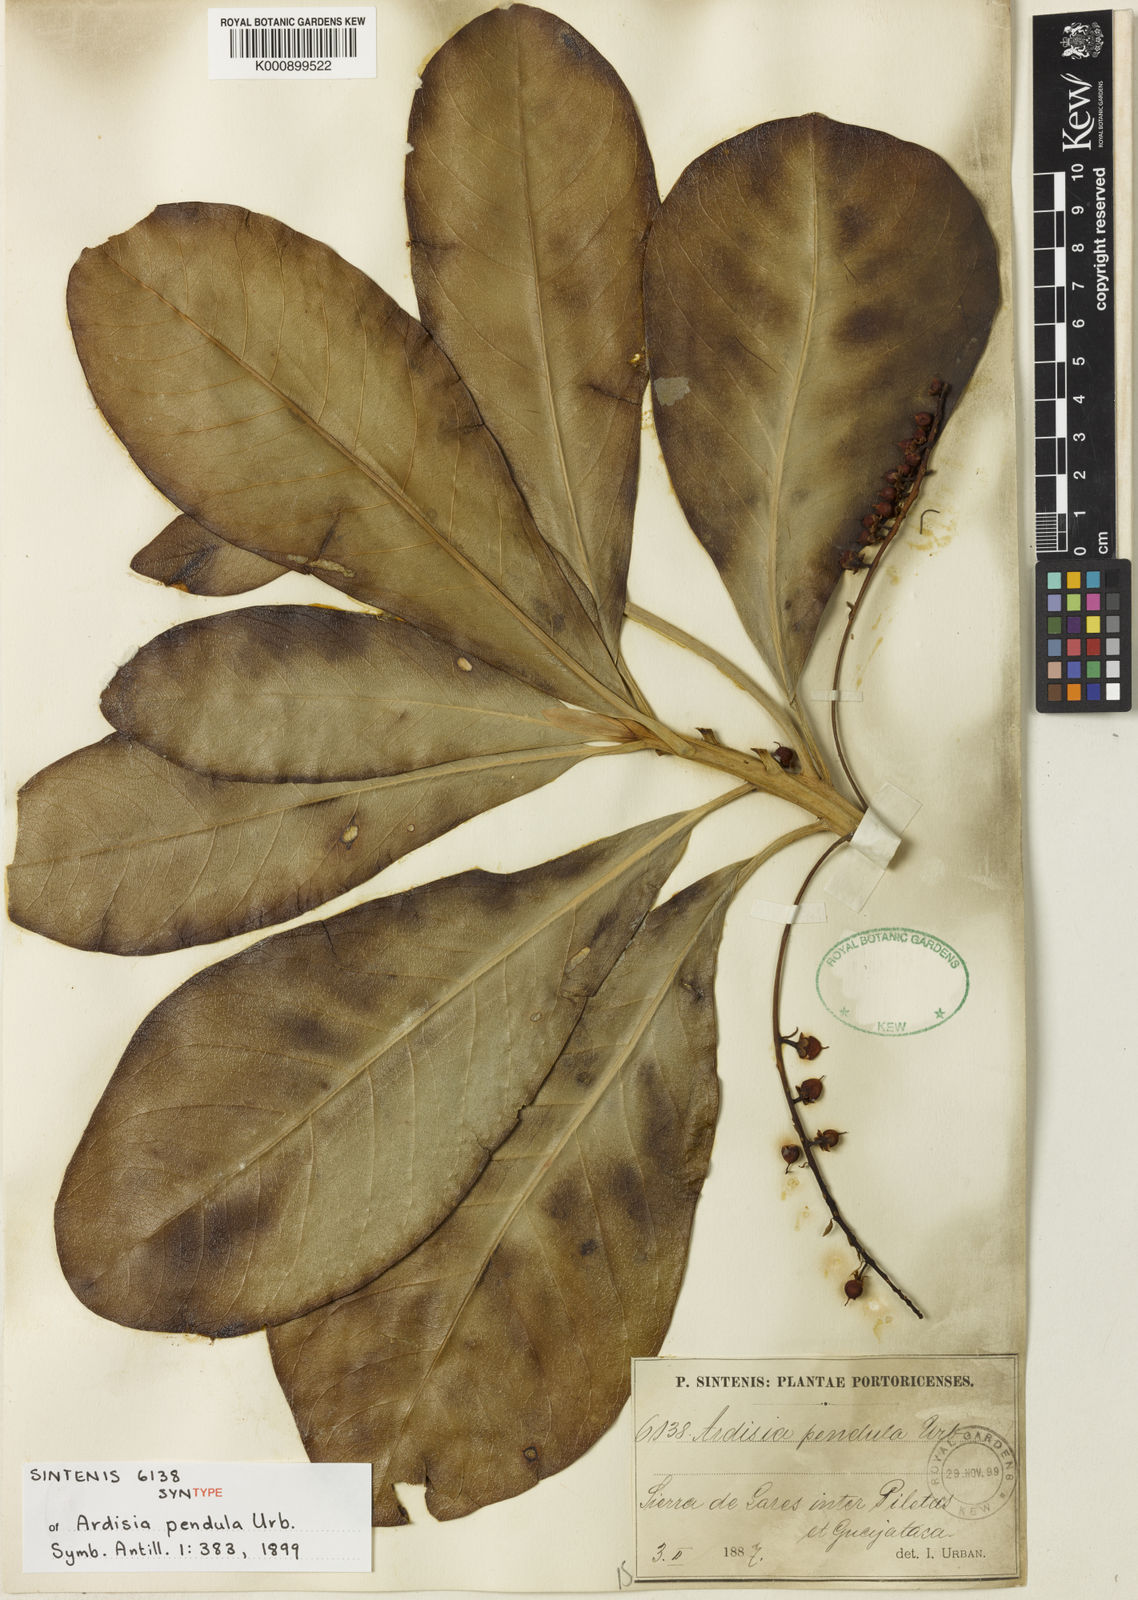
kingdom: Plantae
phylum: Tracheophyta
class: Magnoliopsida
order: Ericales
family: Primulaceae
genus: Cybianthus
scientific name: Cybianthus
